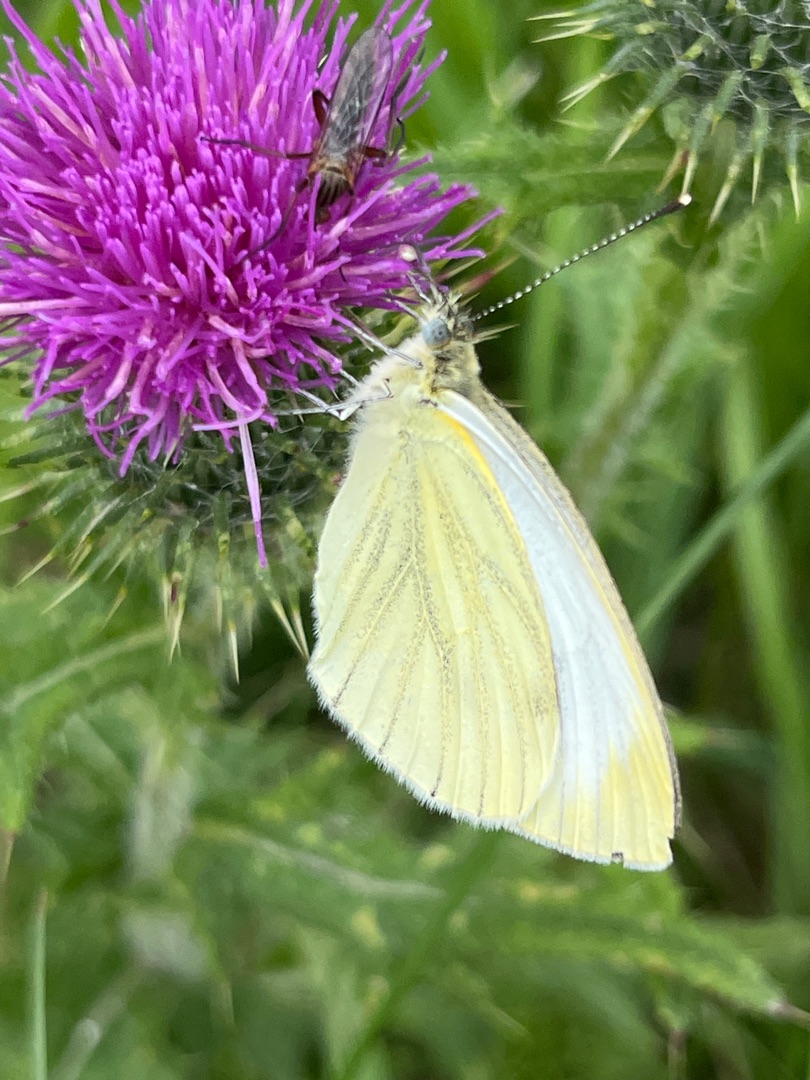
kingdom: Animalia
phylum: Arthropoda
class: Insecta
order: Lepidoptera
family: Pieridae
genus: Pieris
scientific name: Pieris napi
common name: Grønåret kålsommerfugl
